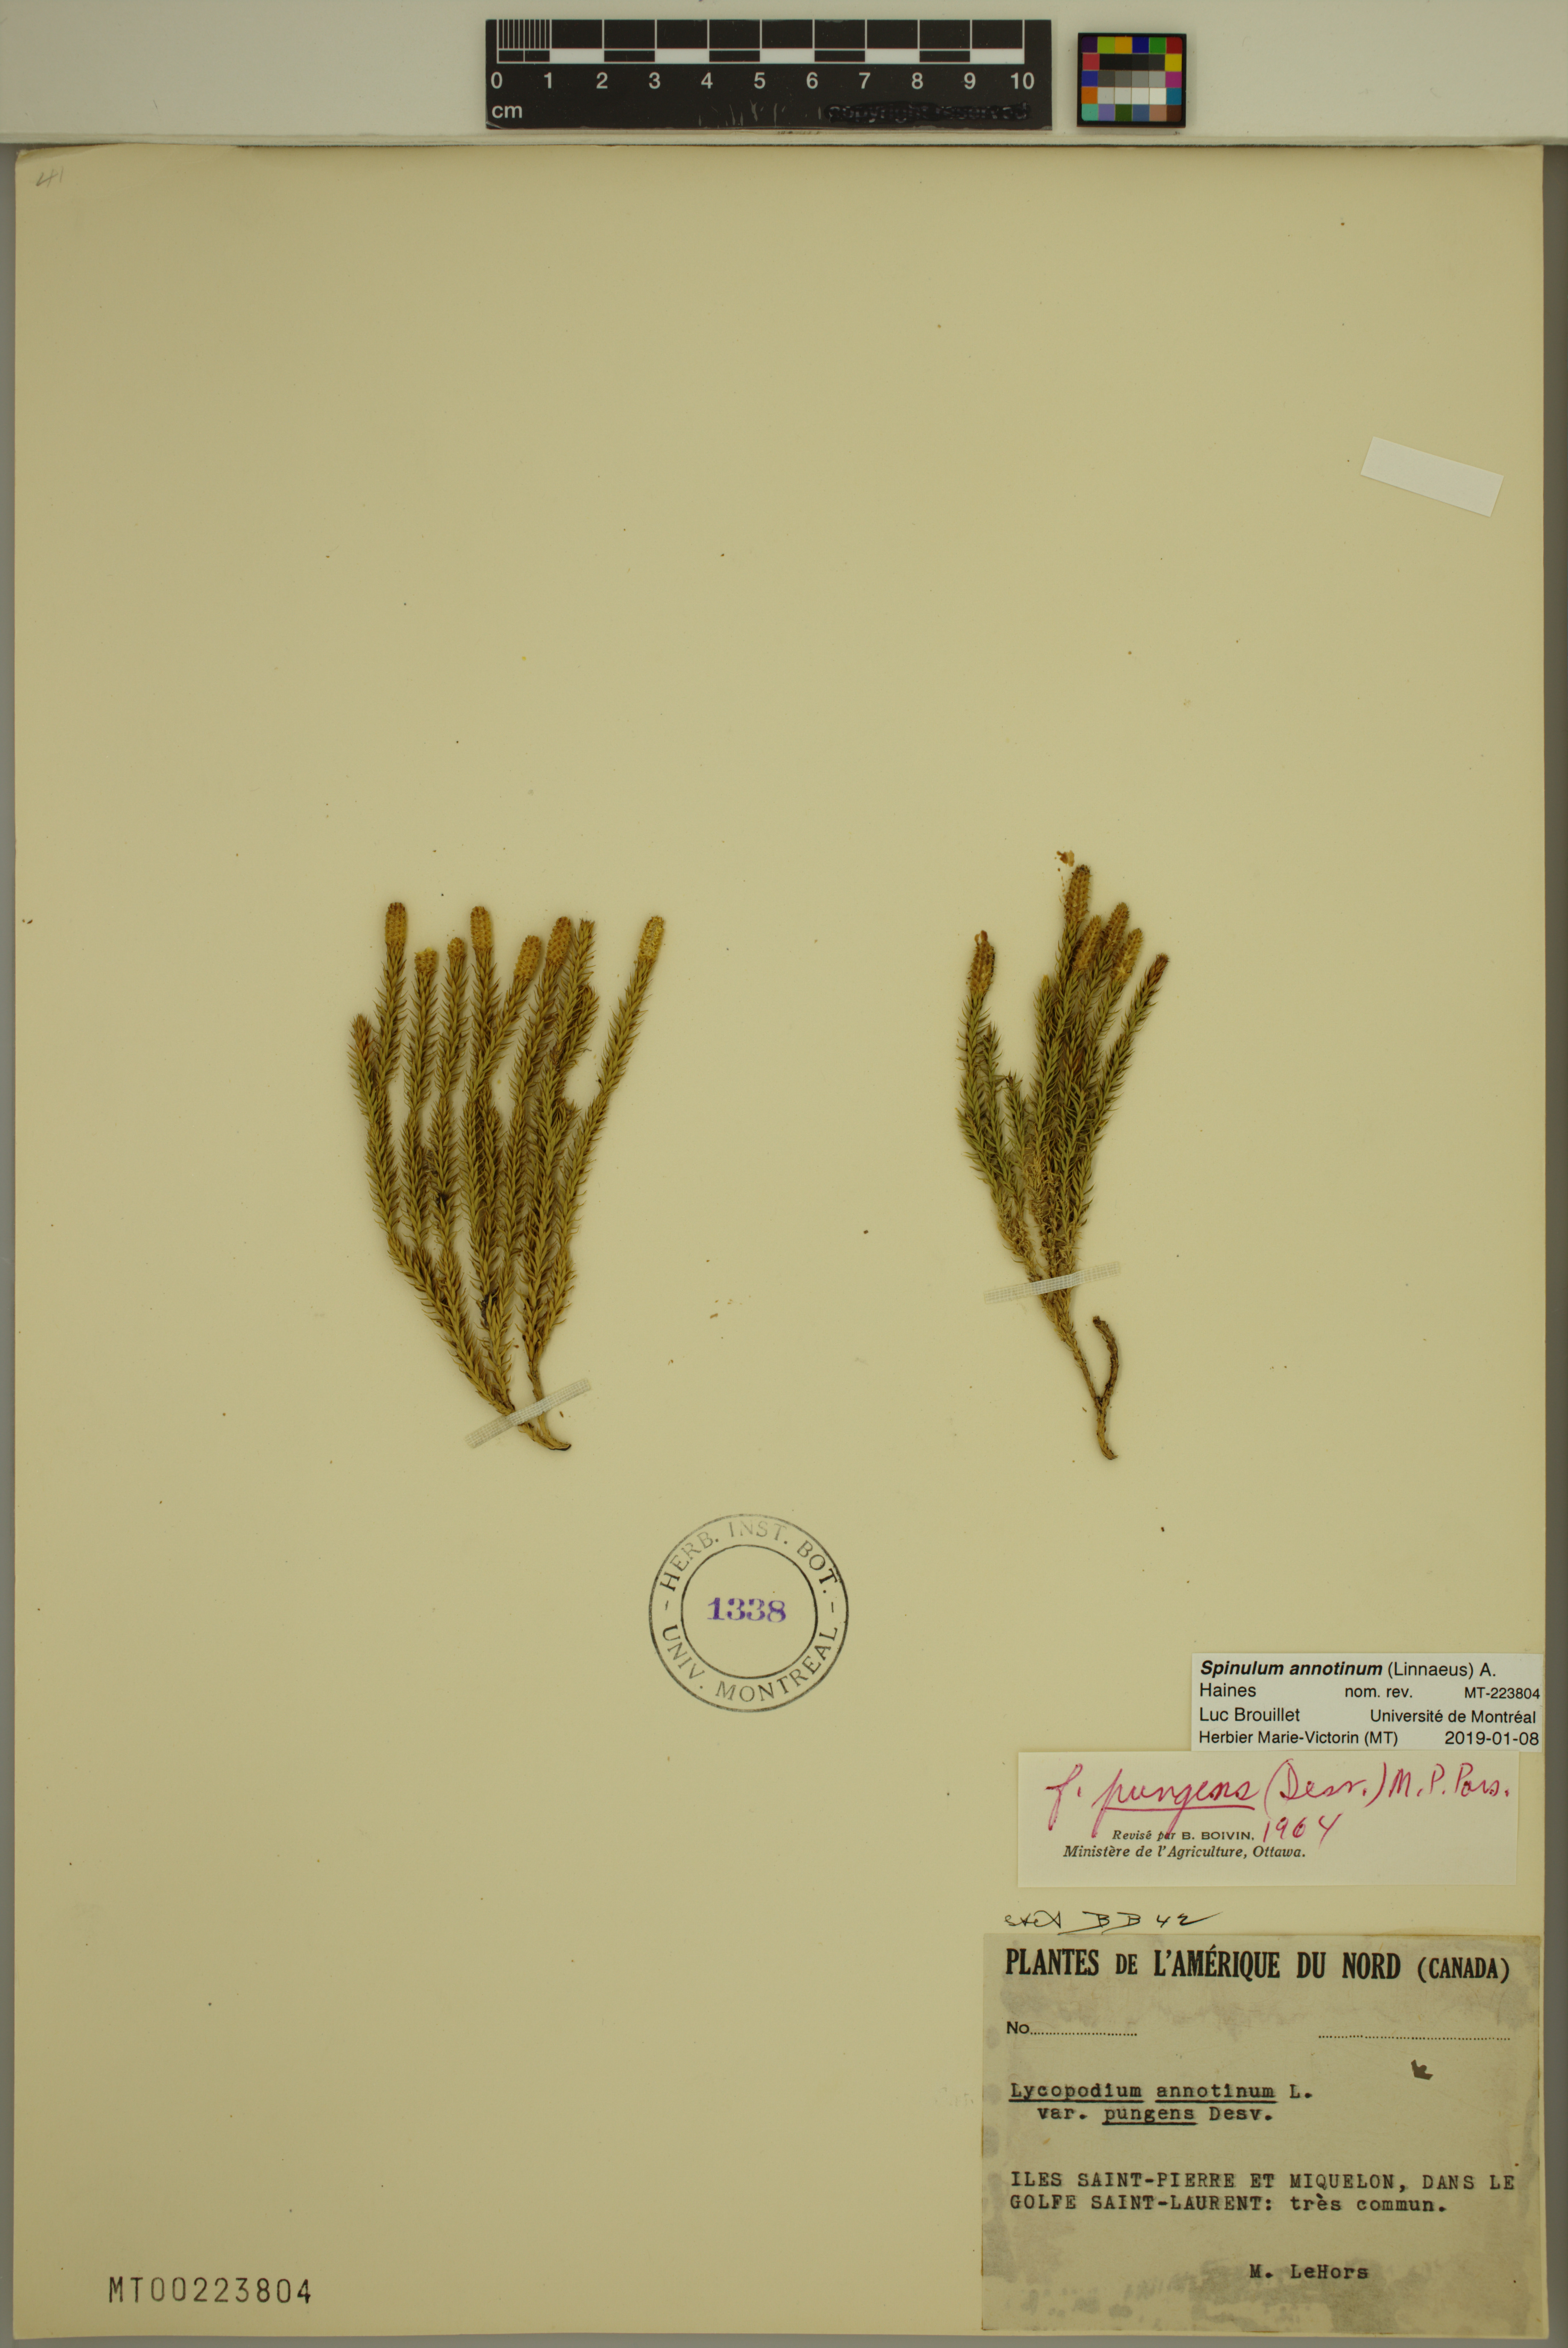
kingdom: Plantae
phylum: Tracheophyta
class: Lycopodiopsida
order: Lycopodiales
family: Lycopodiaceae
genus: Spinulum
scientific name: Spinulum annotinum
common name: Interrupted club-moss
